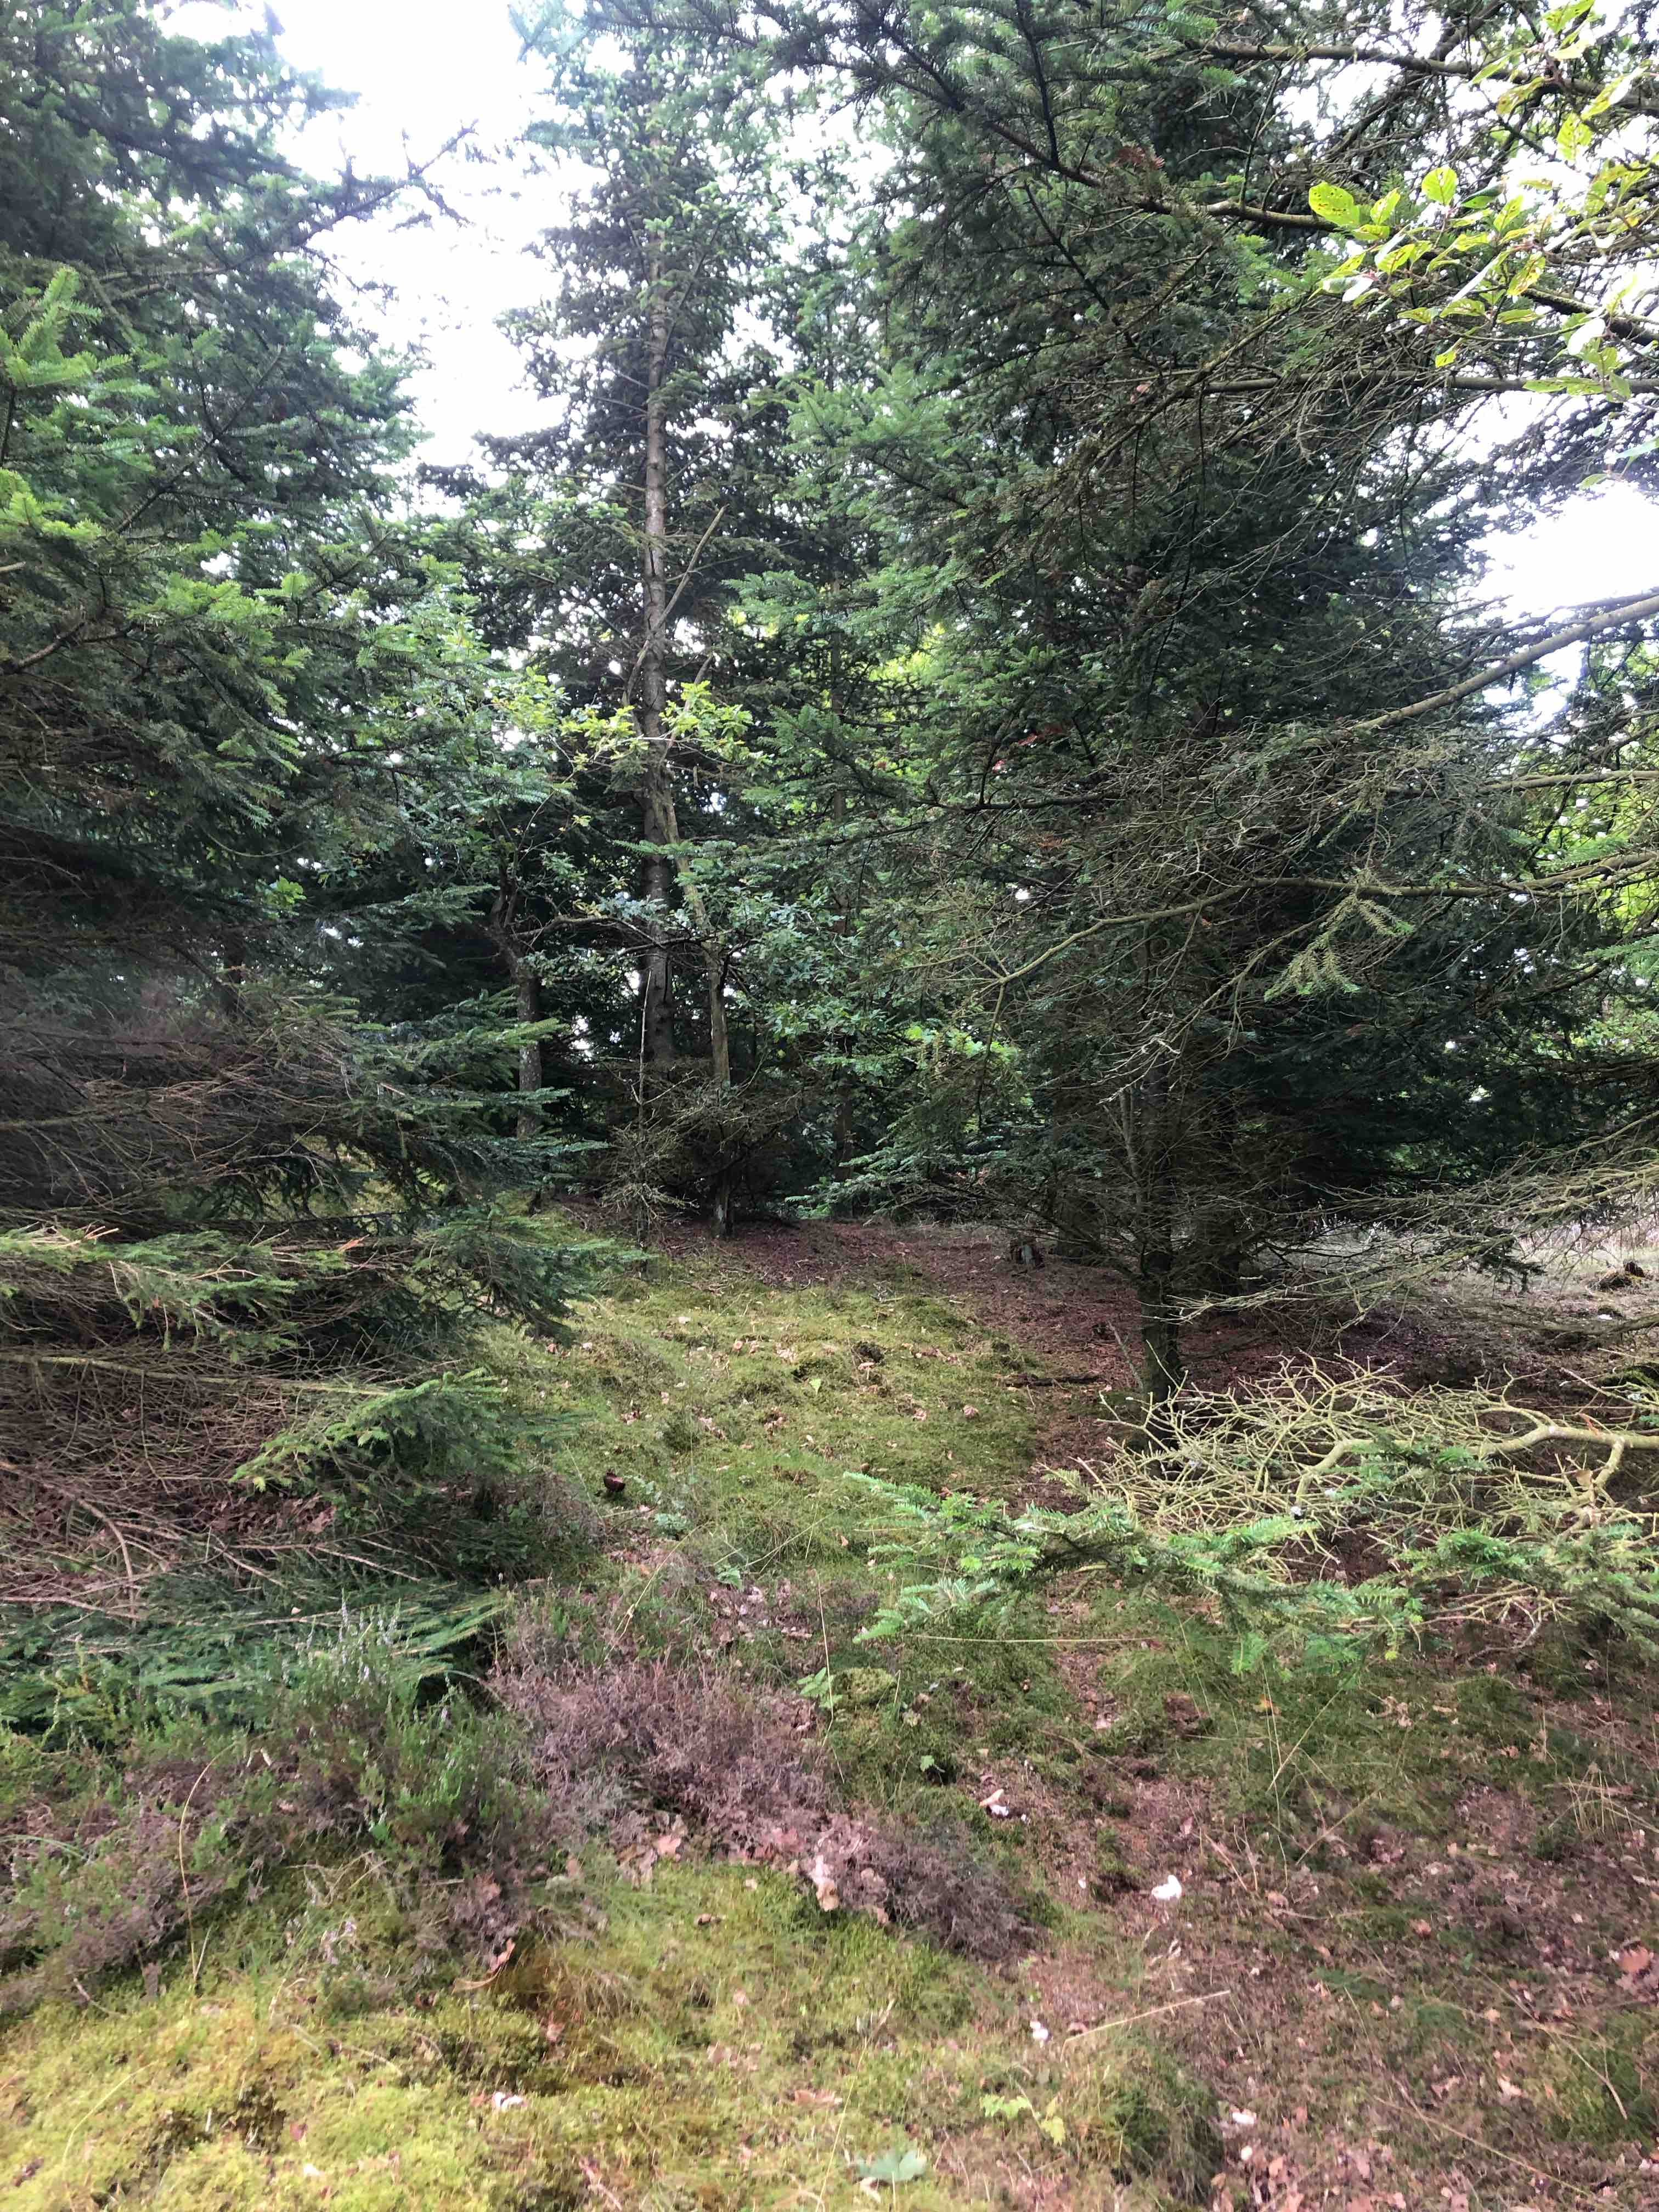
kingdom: Fungi
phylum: Basidiomycota
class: Agaricomycetes
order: Russulales
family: Russulaceae
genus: Russula
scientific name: Russula decolorans
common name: afblegende skørhat
